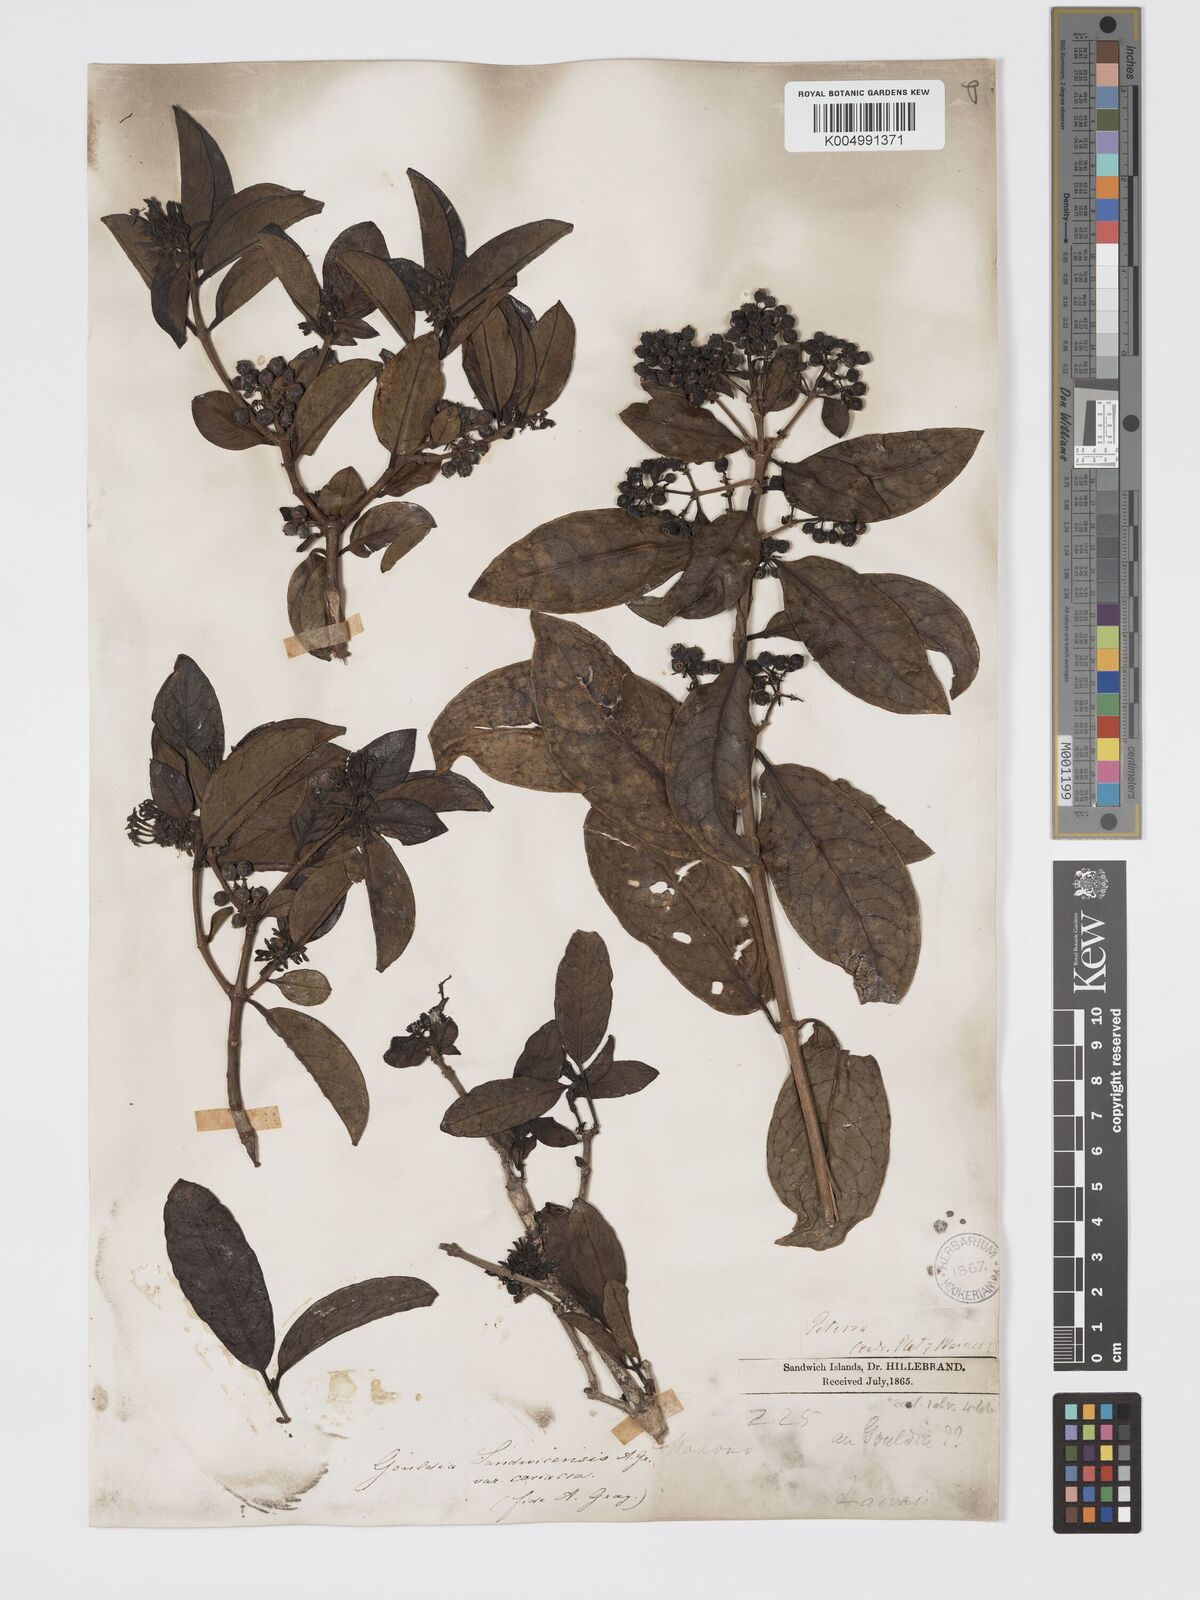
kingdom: Plantae
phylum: Tracheophyta
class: Magnoliopsida
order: Gentianales
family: Rubiaceae
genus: Kadua
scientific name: Kadua affinis
